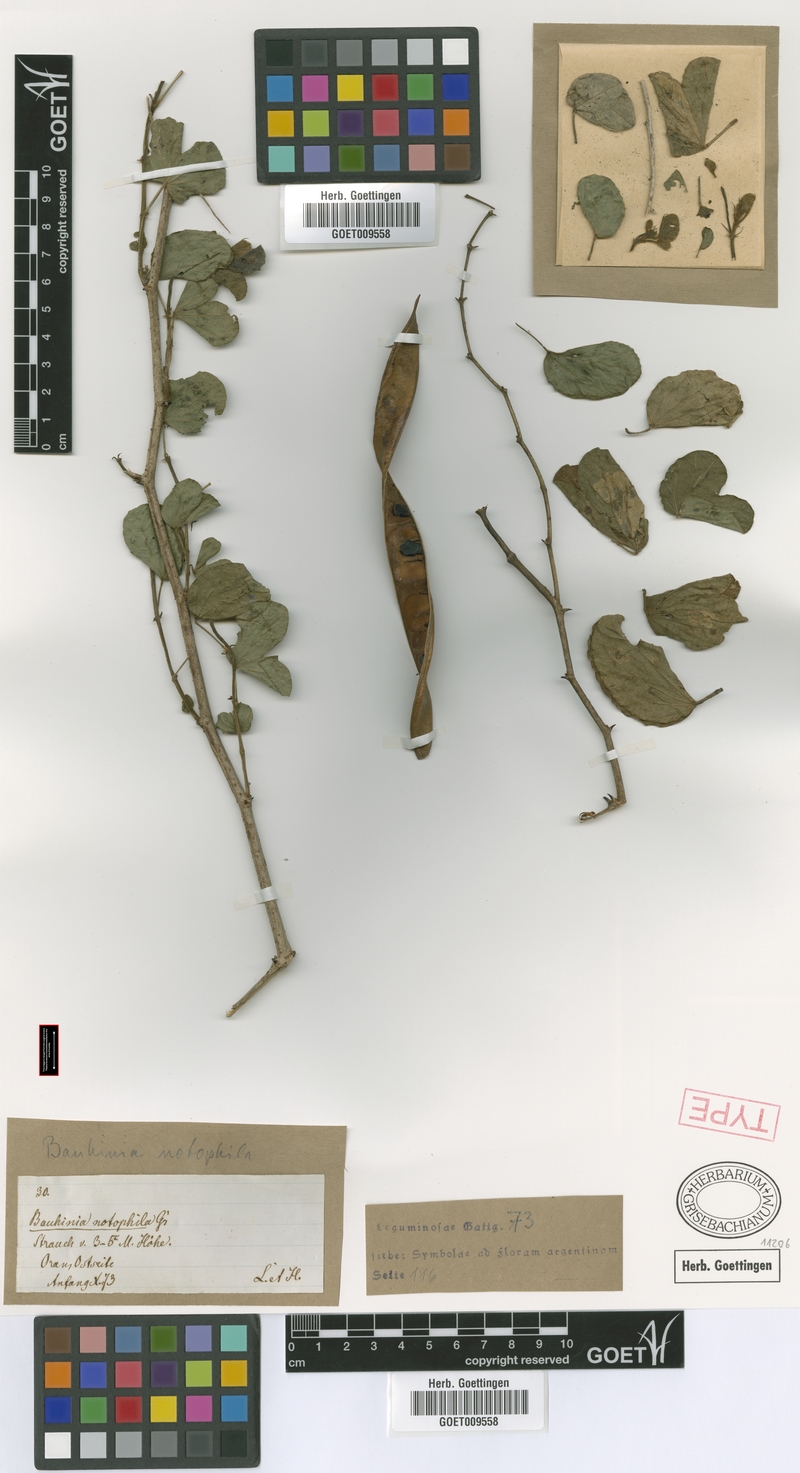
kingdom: Plantae
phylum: Tracheophyta
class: Magnoliopsida
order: Fabales
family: Fabaceae
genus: Bauhinia
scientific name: Bauhinia mollis
